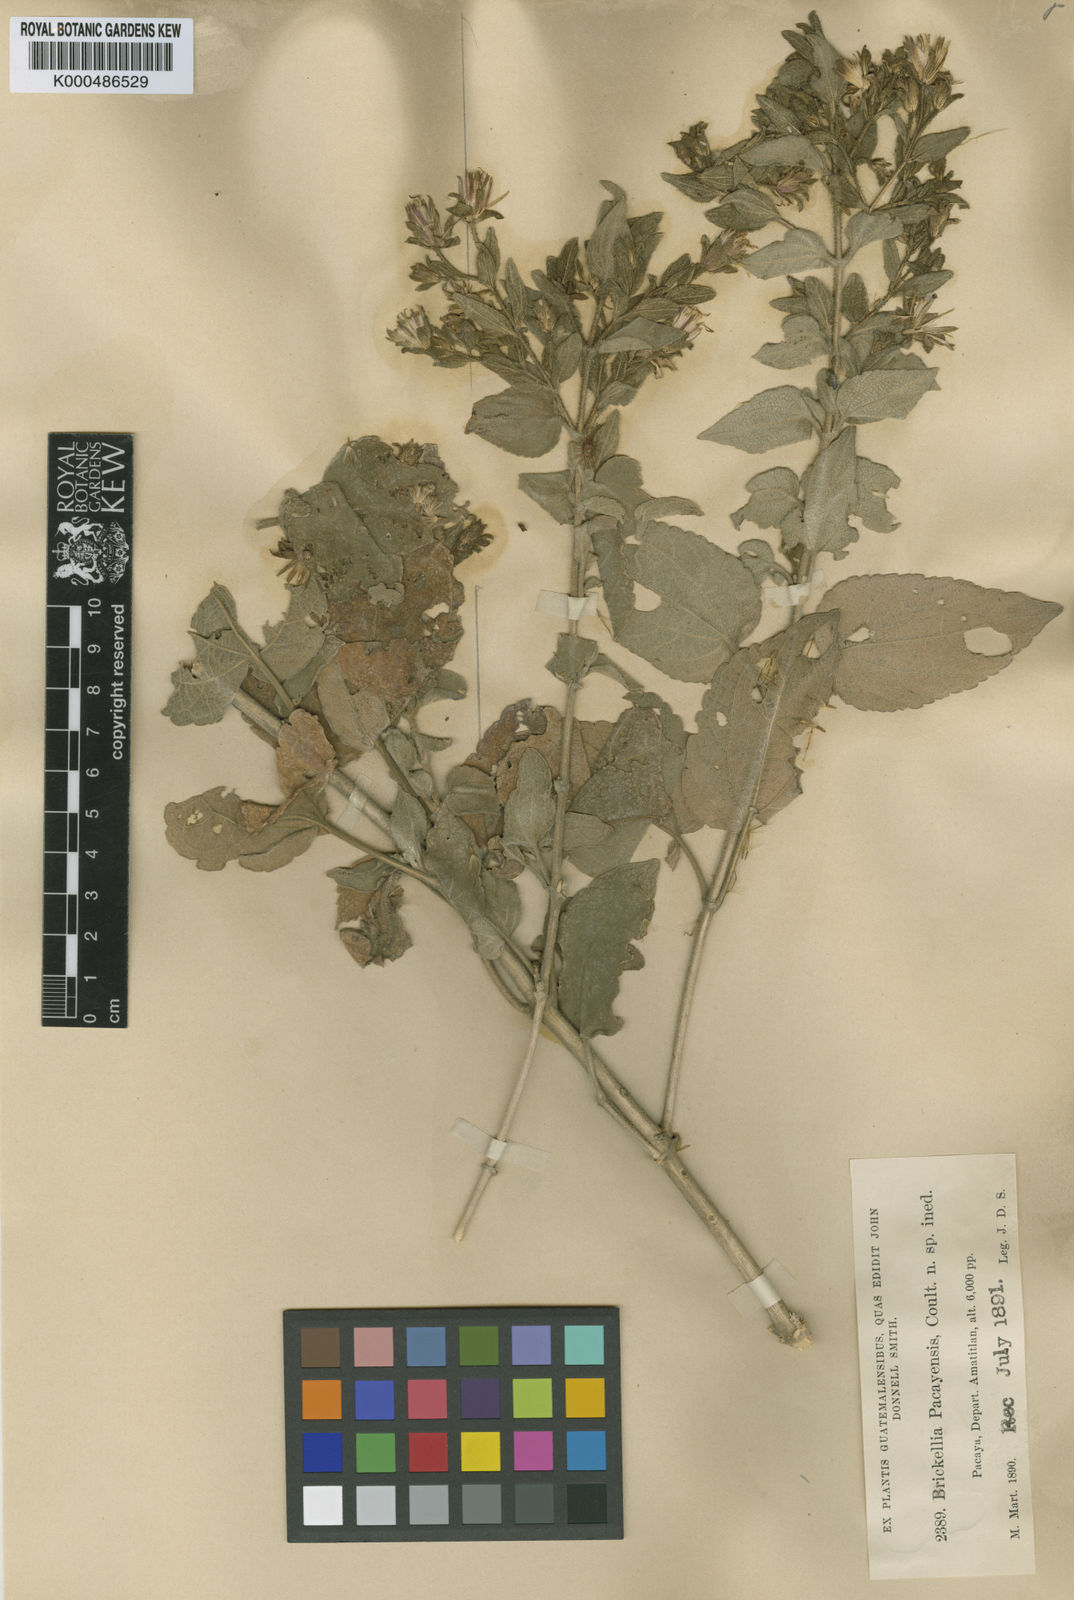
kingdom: Plantae
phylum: Tracheophyta
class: Magnoliopsida
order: Asterales
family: Asteraceae
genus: Brickellia
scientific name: Brickellia glandulosa
